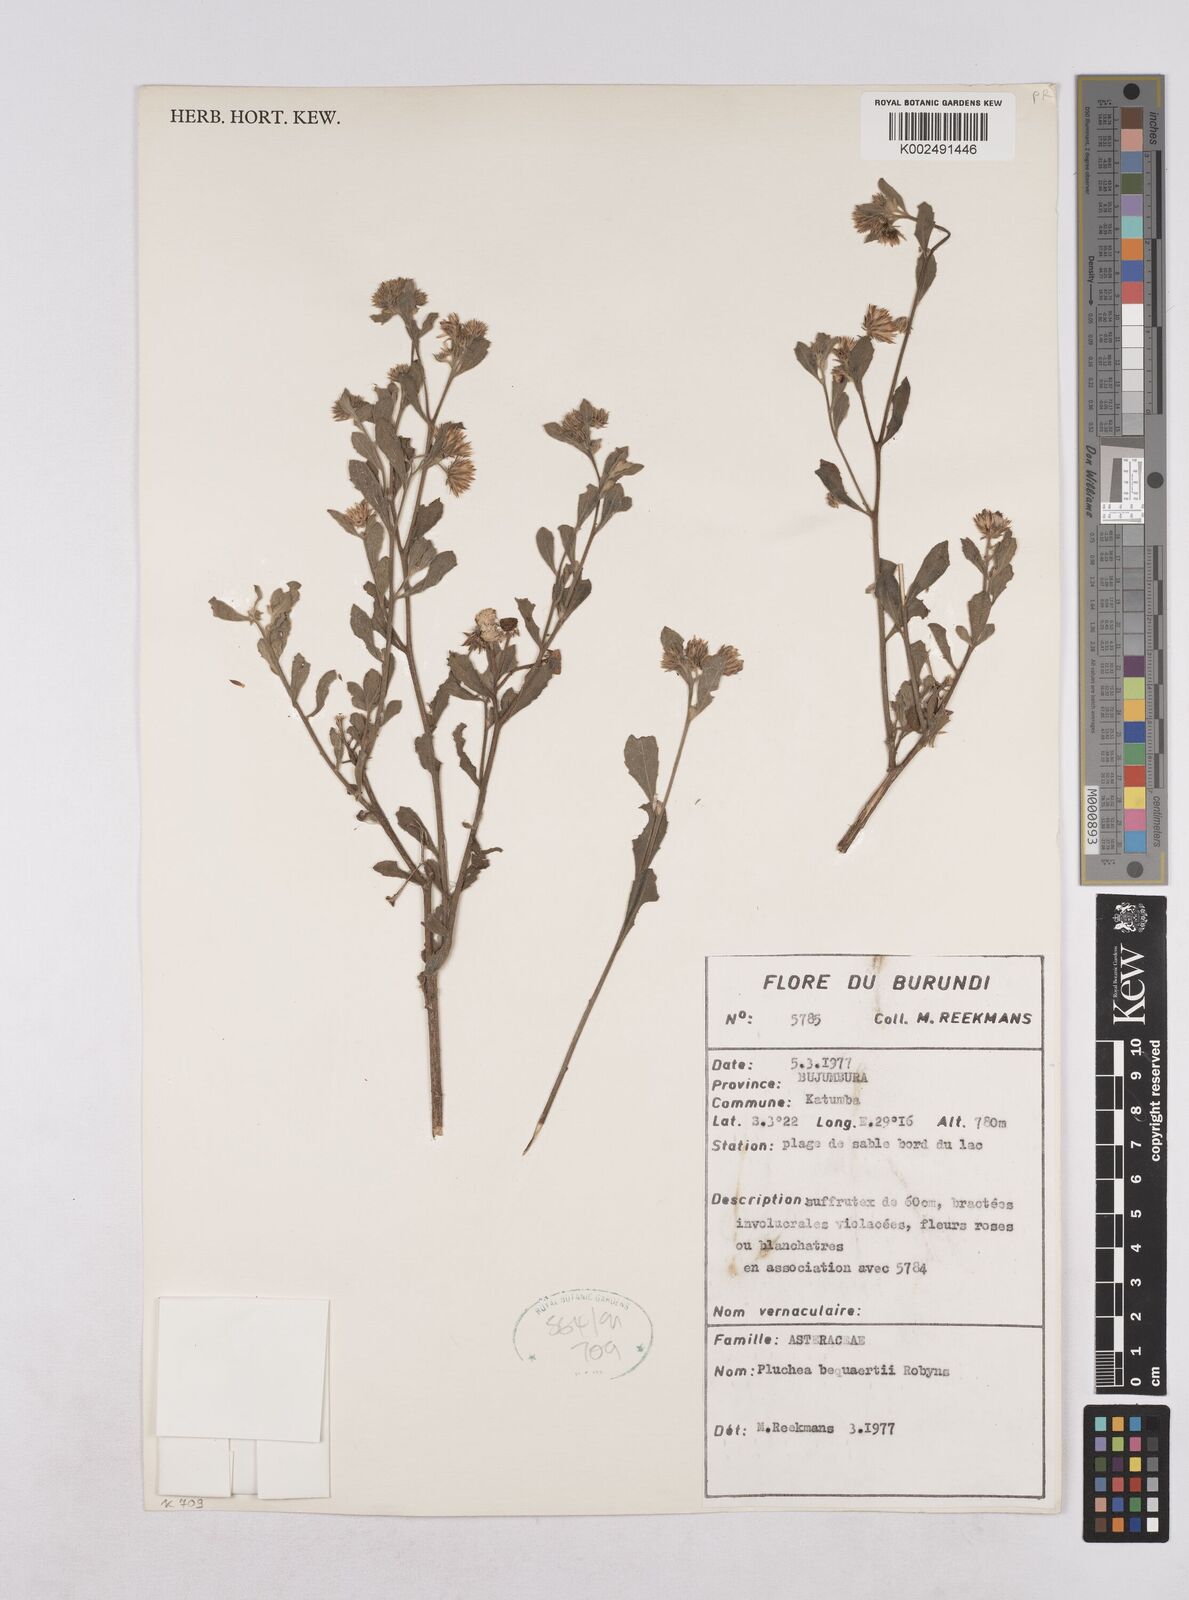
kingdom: Plantae
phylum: Tracheophyta
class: Magnoliopsida
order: Asterales
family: Asteraceae
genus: Pluchea
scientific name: Pluchea sordida
